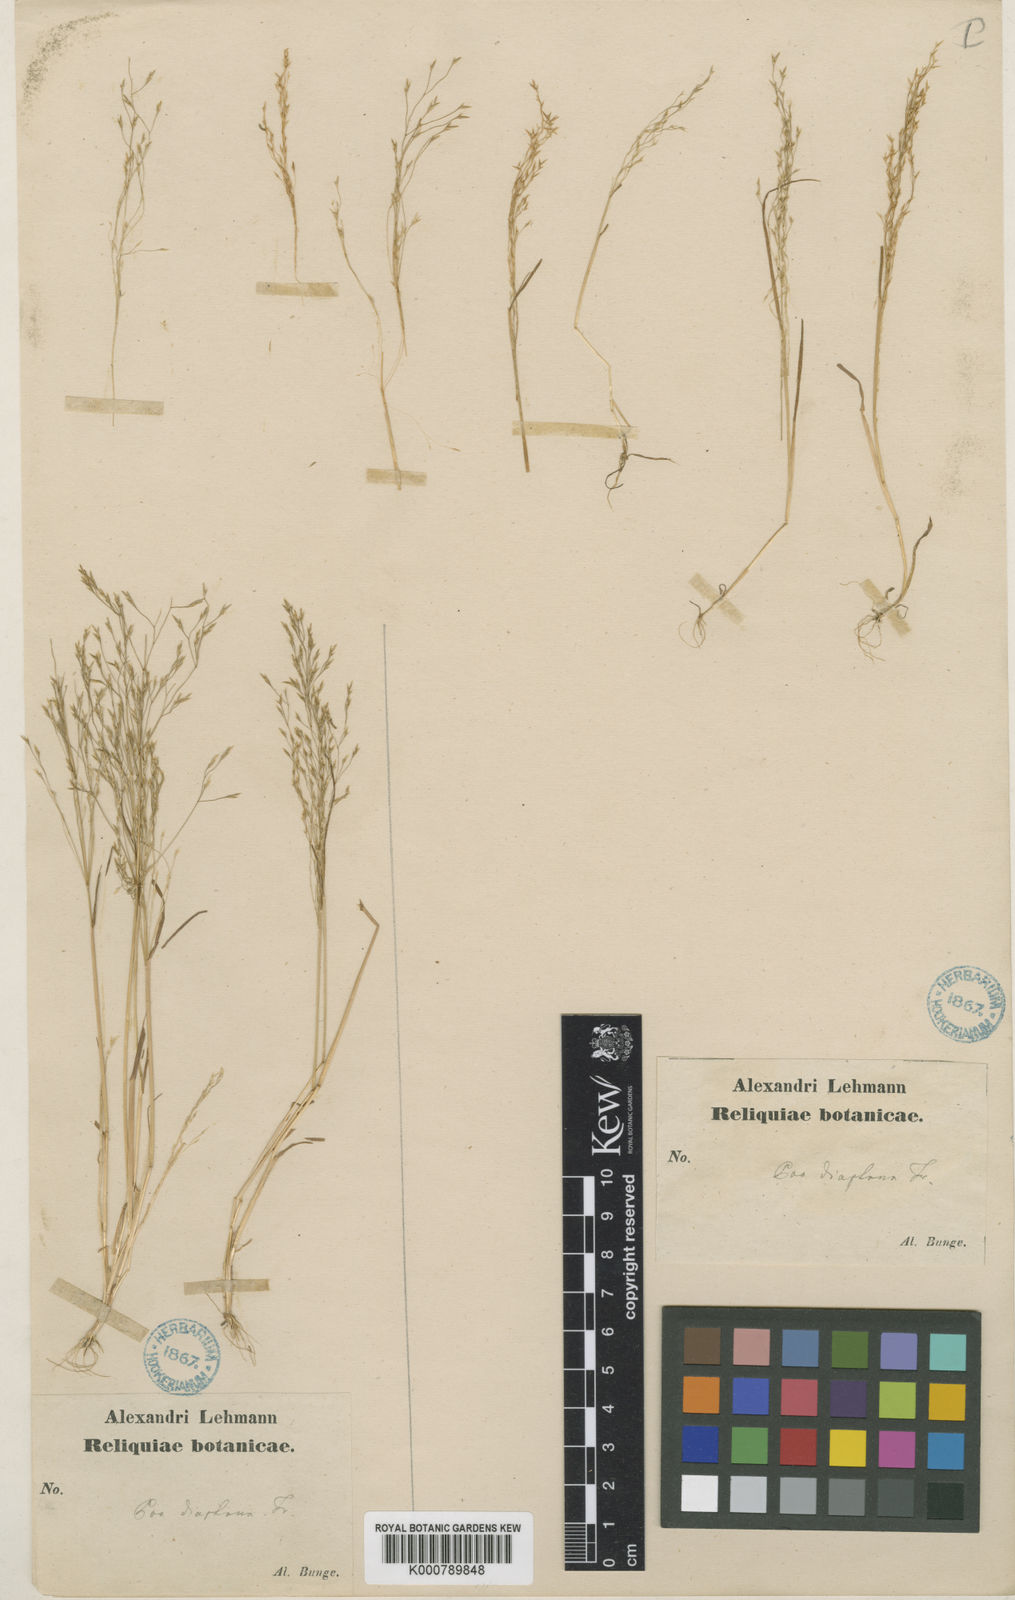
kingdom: Plantae
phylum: Tracheophyta
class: Liliopsida
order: Poales
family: Poaceae
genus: Poa
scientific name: Poa diaphora
